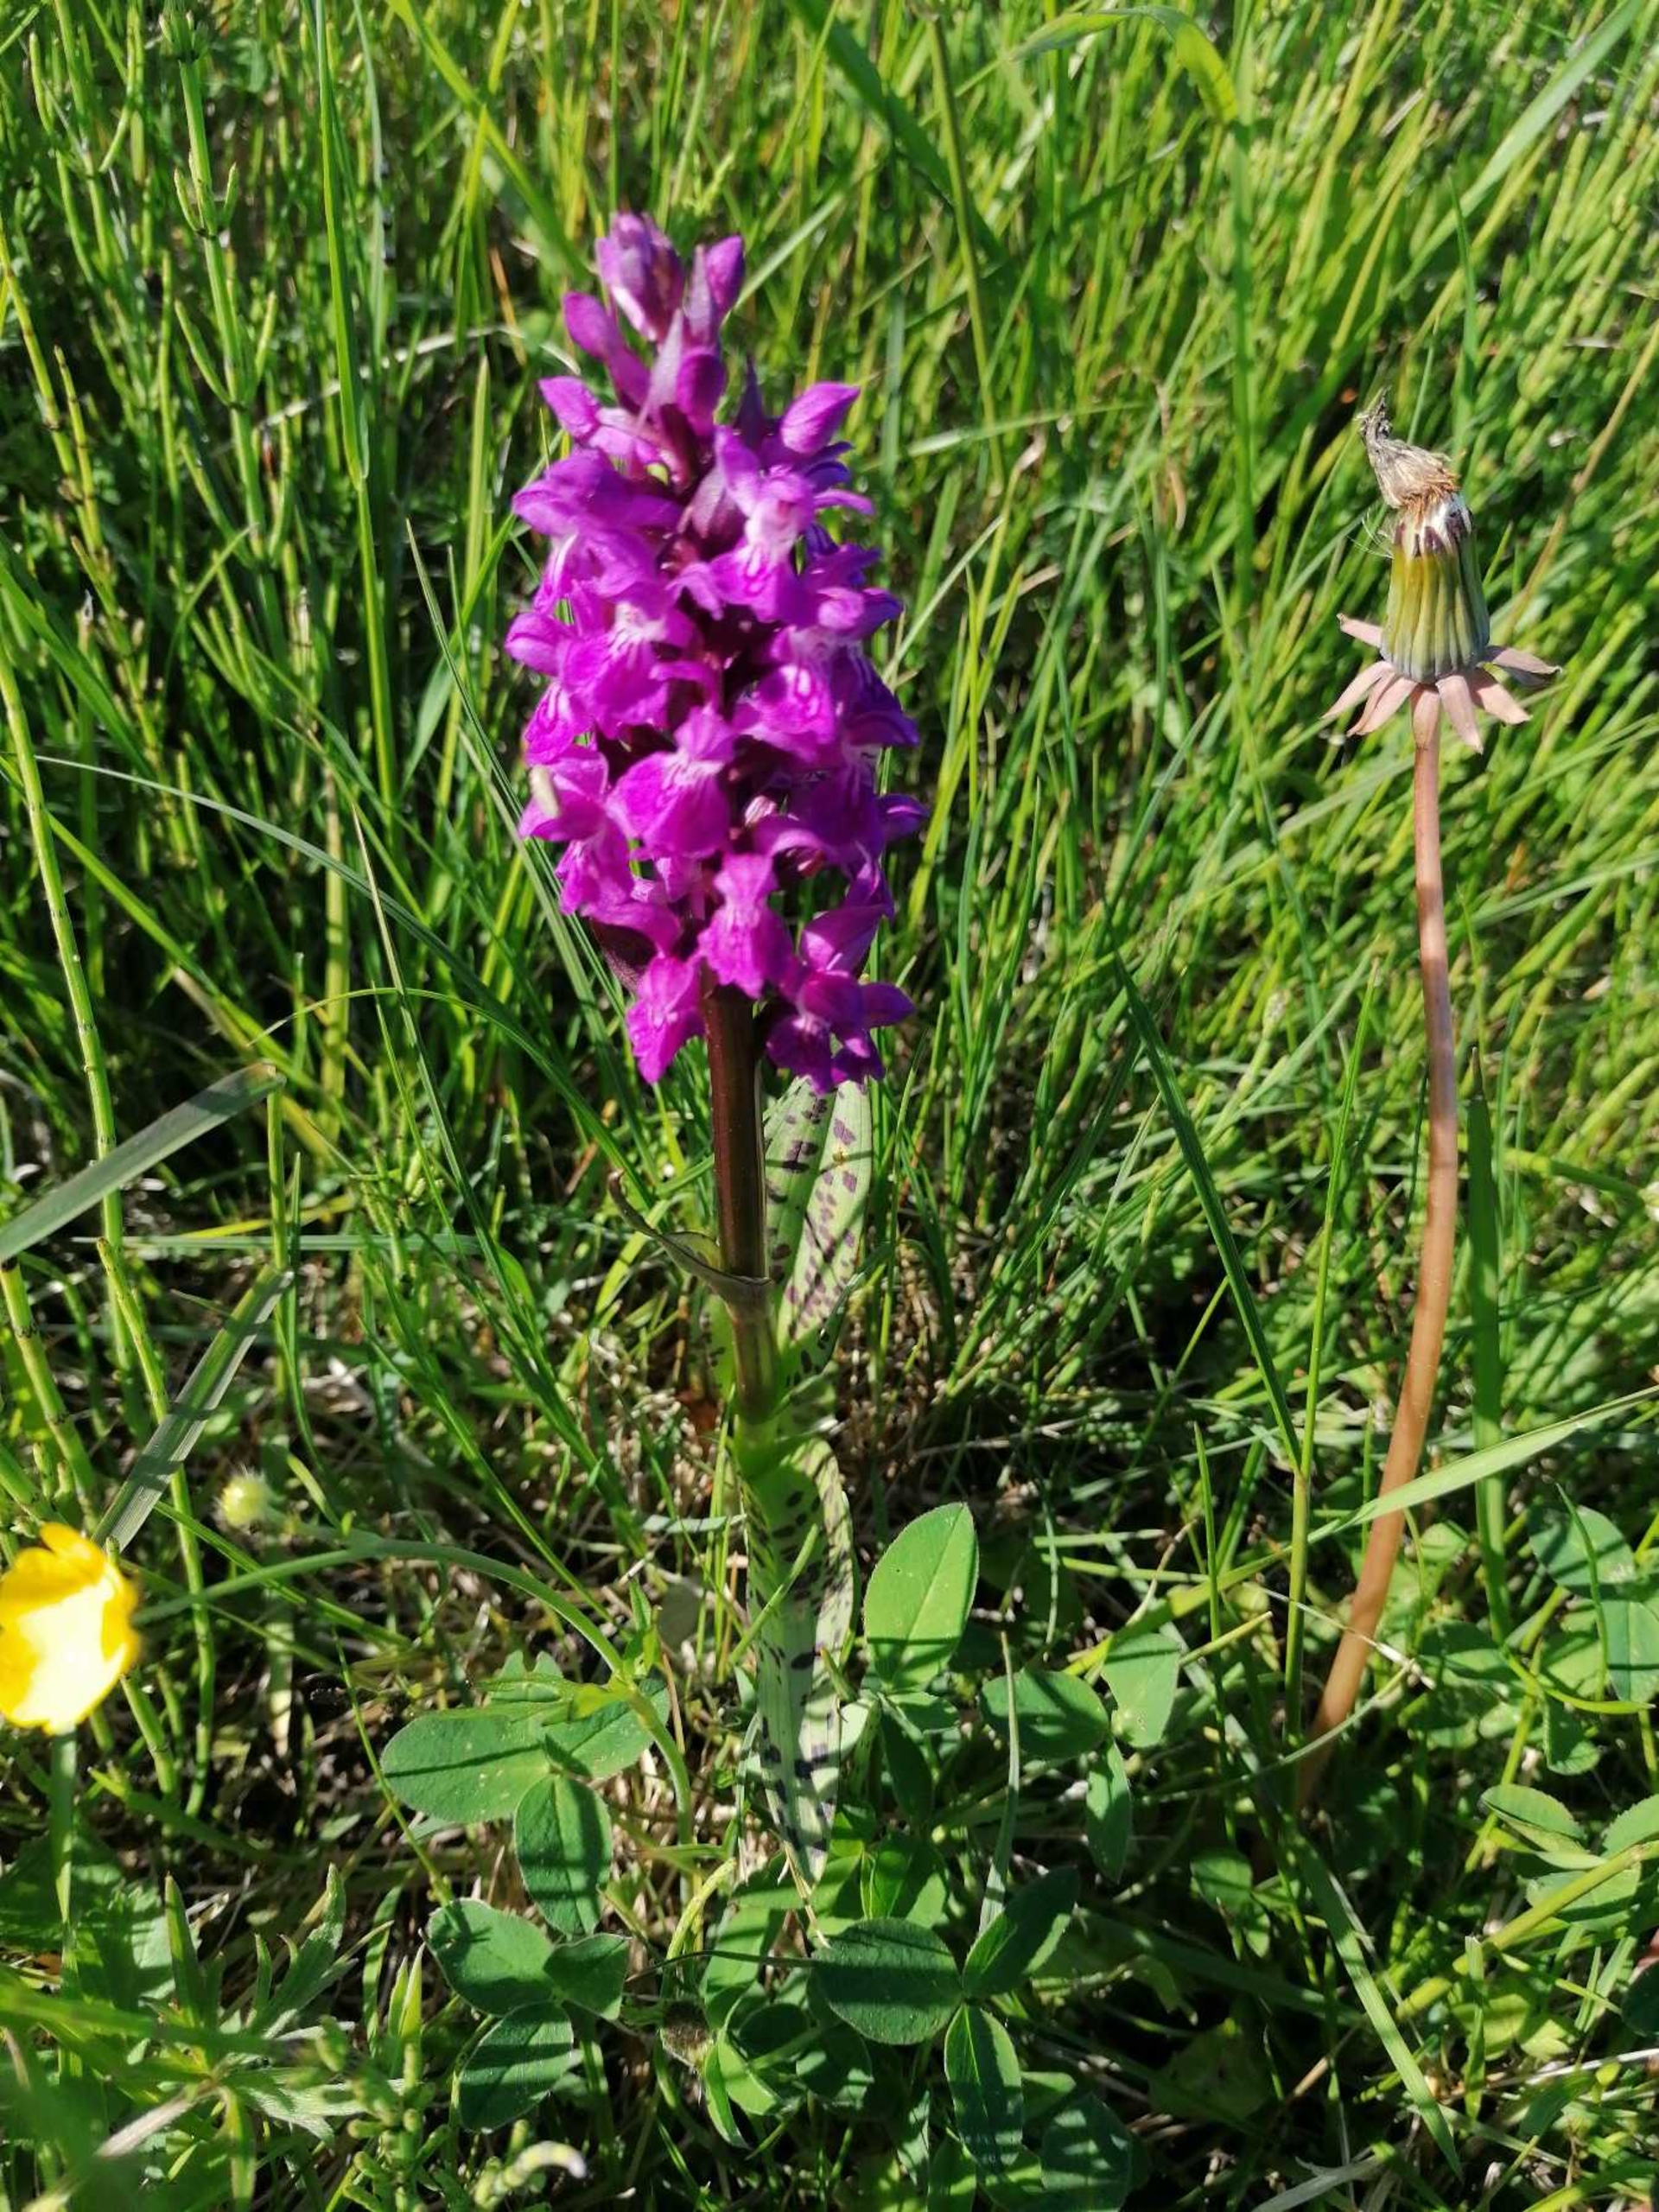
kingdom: Plantae
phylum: Tracheophyta
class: Liliopsida
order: Asparagales
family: Orchidaceae
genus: Dactylorhiza
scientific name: Dactylorhiza majalis
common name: Maj-gøgeurt
